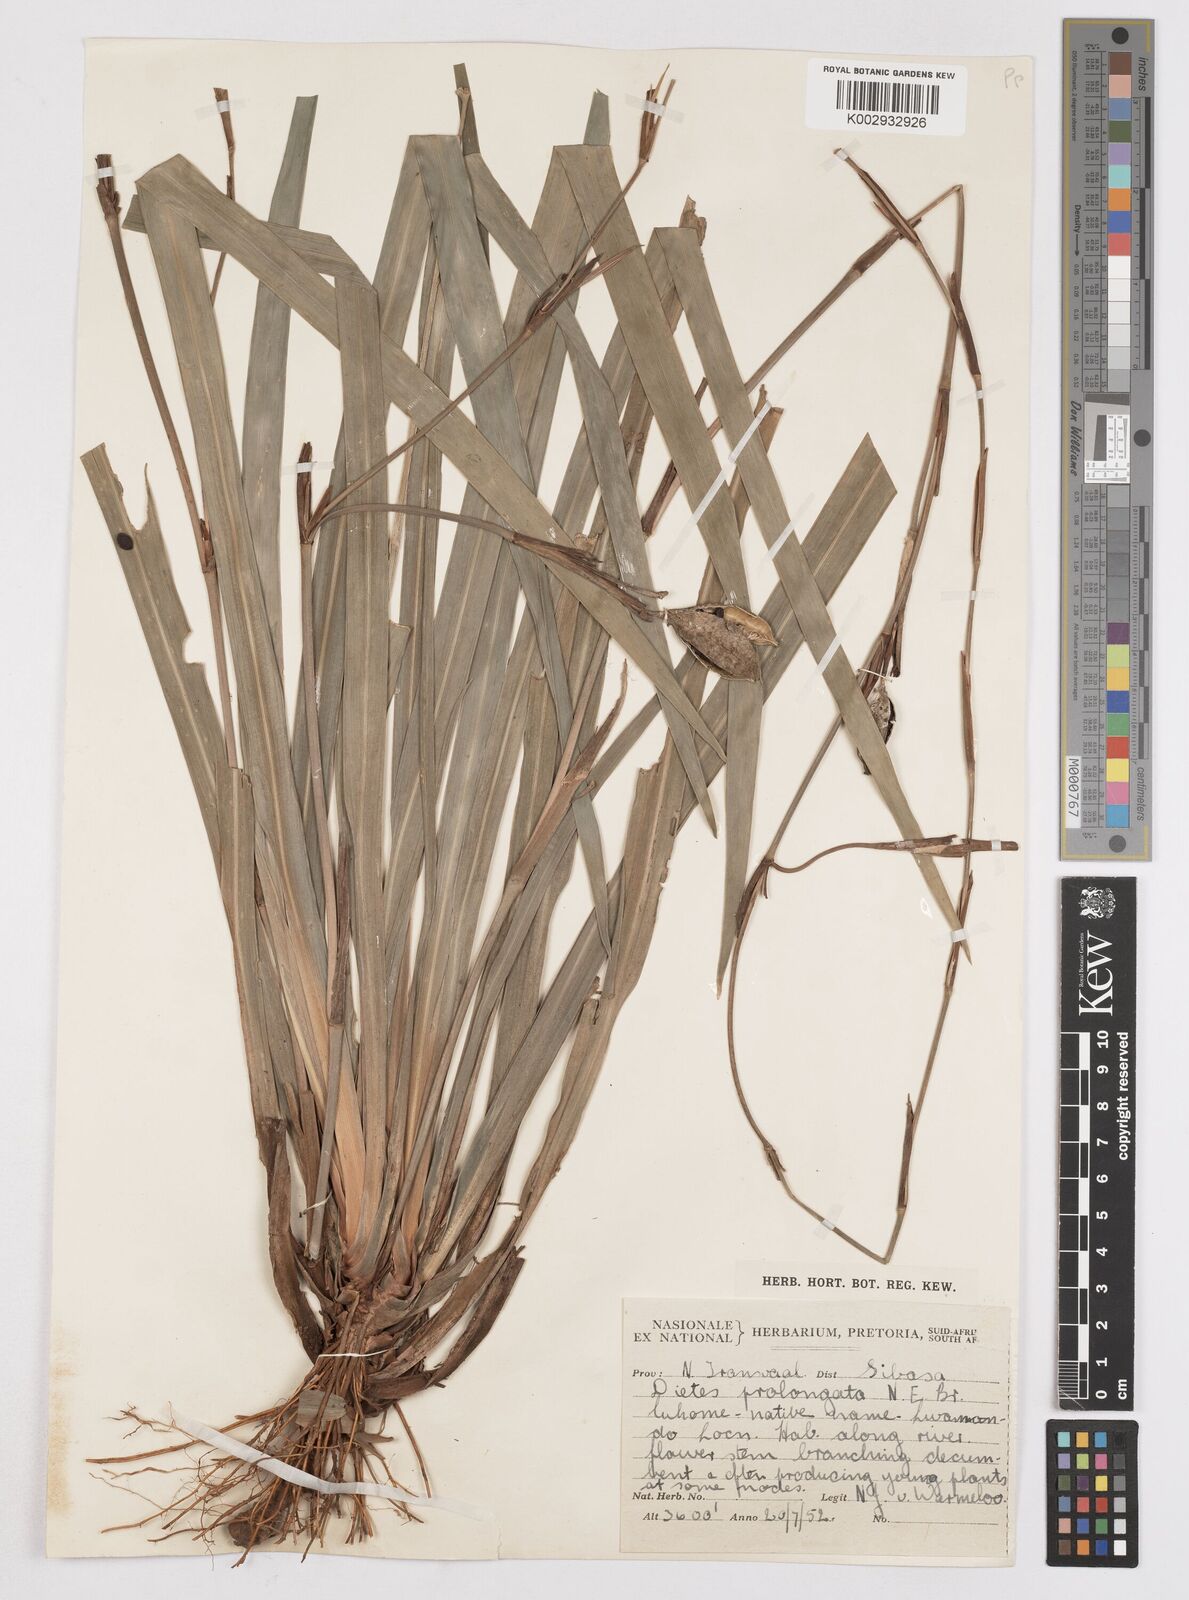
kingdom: Plantae
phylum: Tracheophyta
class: Liliopsida
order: Asparagales
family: Iridaceae
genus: Dietes
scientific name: Dietes iridioides
